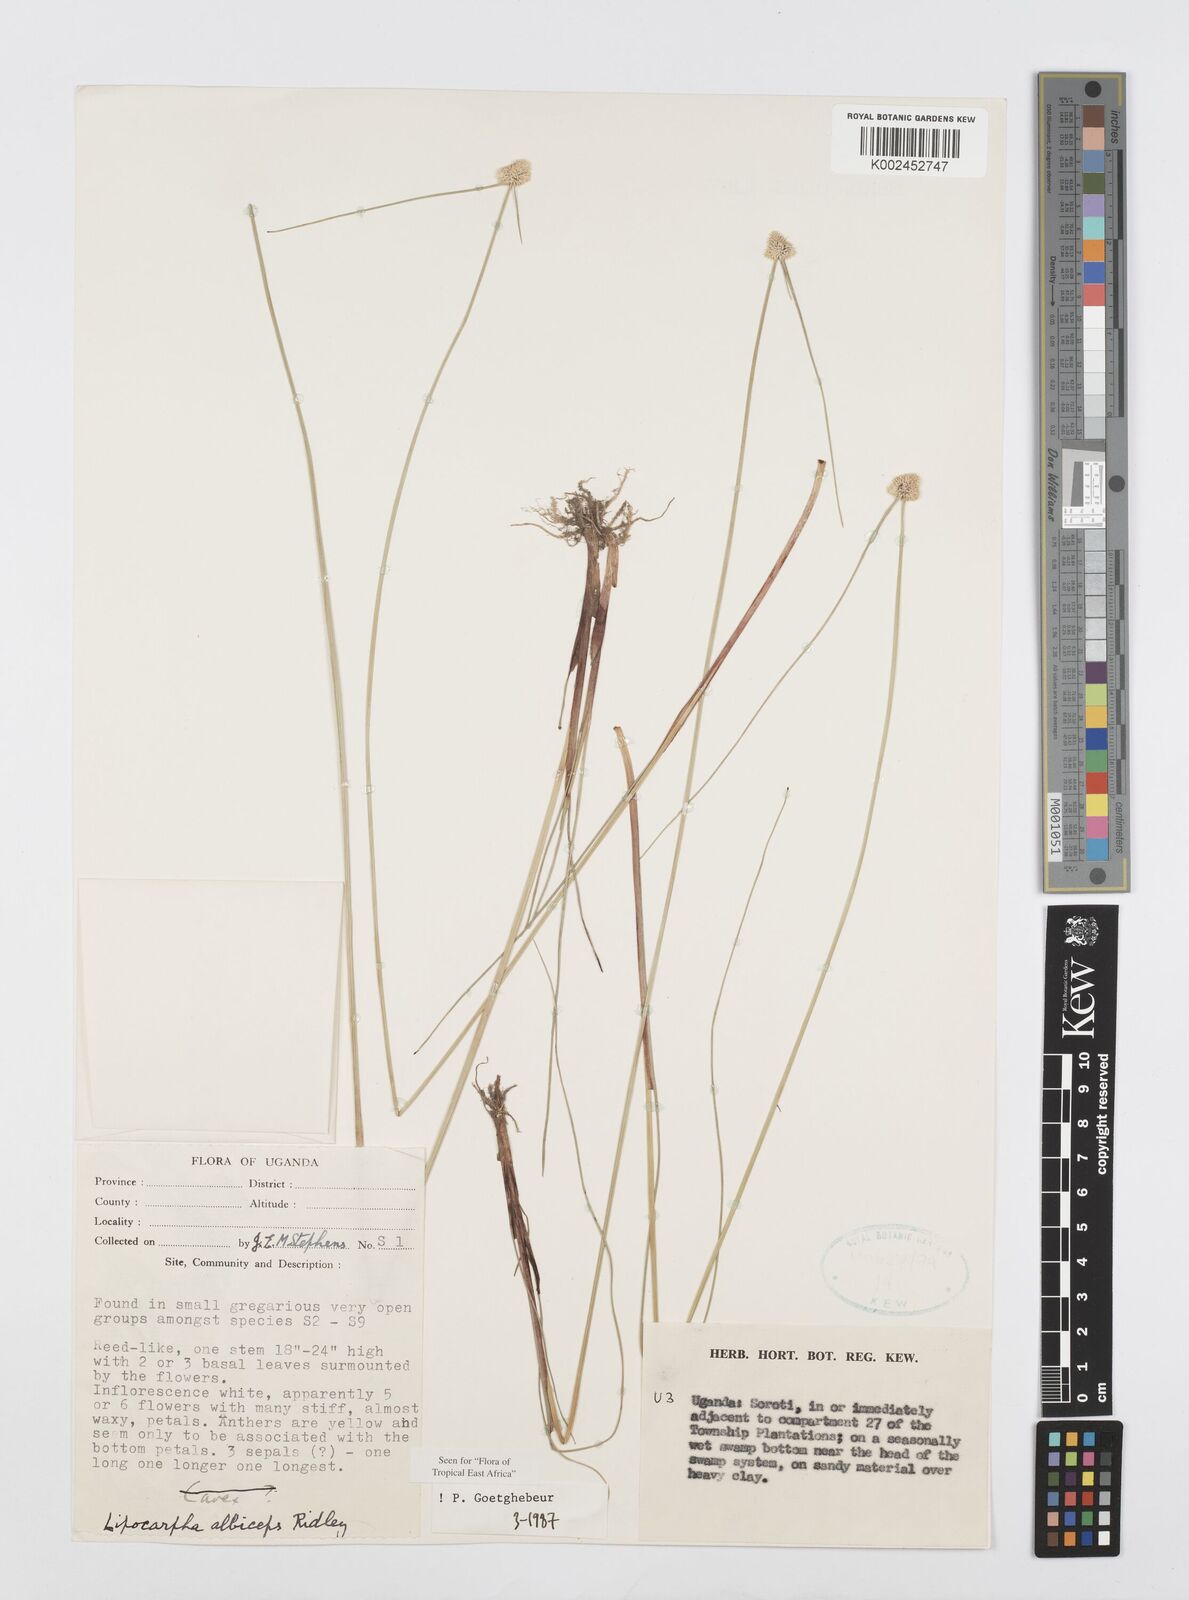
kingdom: Plantae
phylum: Tracheophyta
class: Liliopsida
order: Poales
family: Cyperaceae
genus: Cyperus
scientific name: Cyperus albiceps
